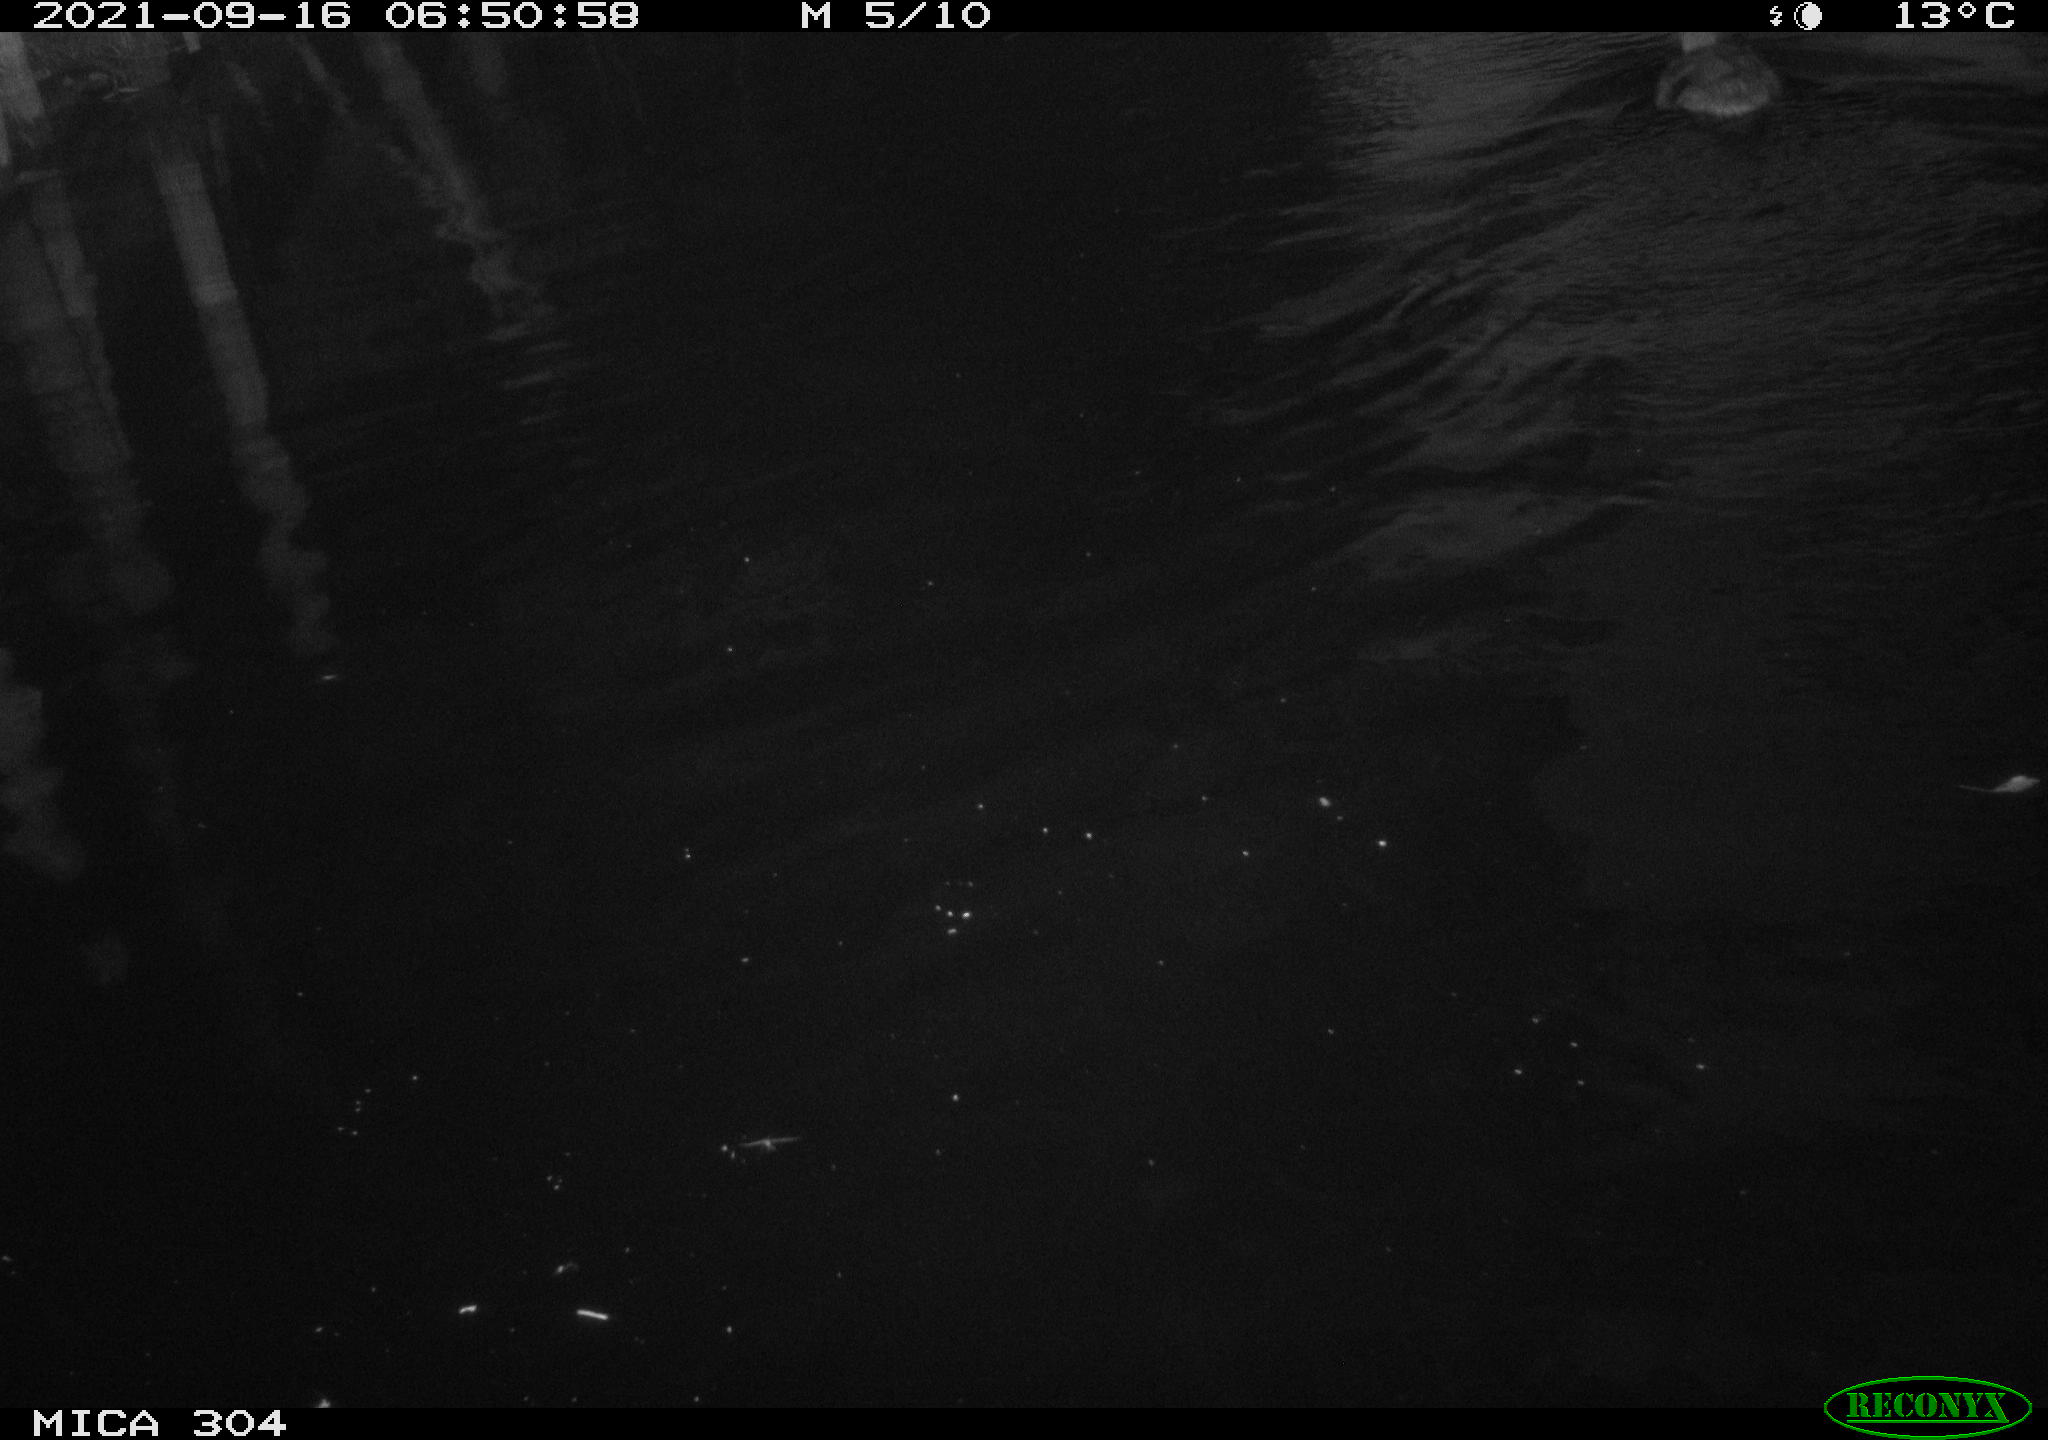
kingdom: Animalia
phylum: Chordata
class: Aves
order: Anseriformes
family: Anatidae
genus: Anas
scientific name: Anas platyrhynchos
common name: Mallard
